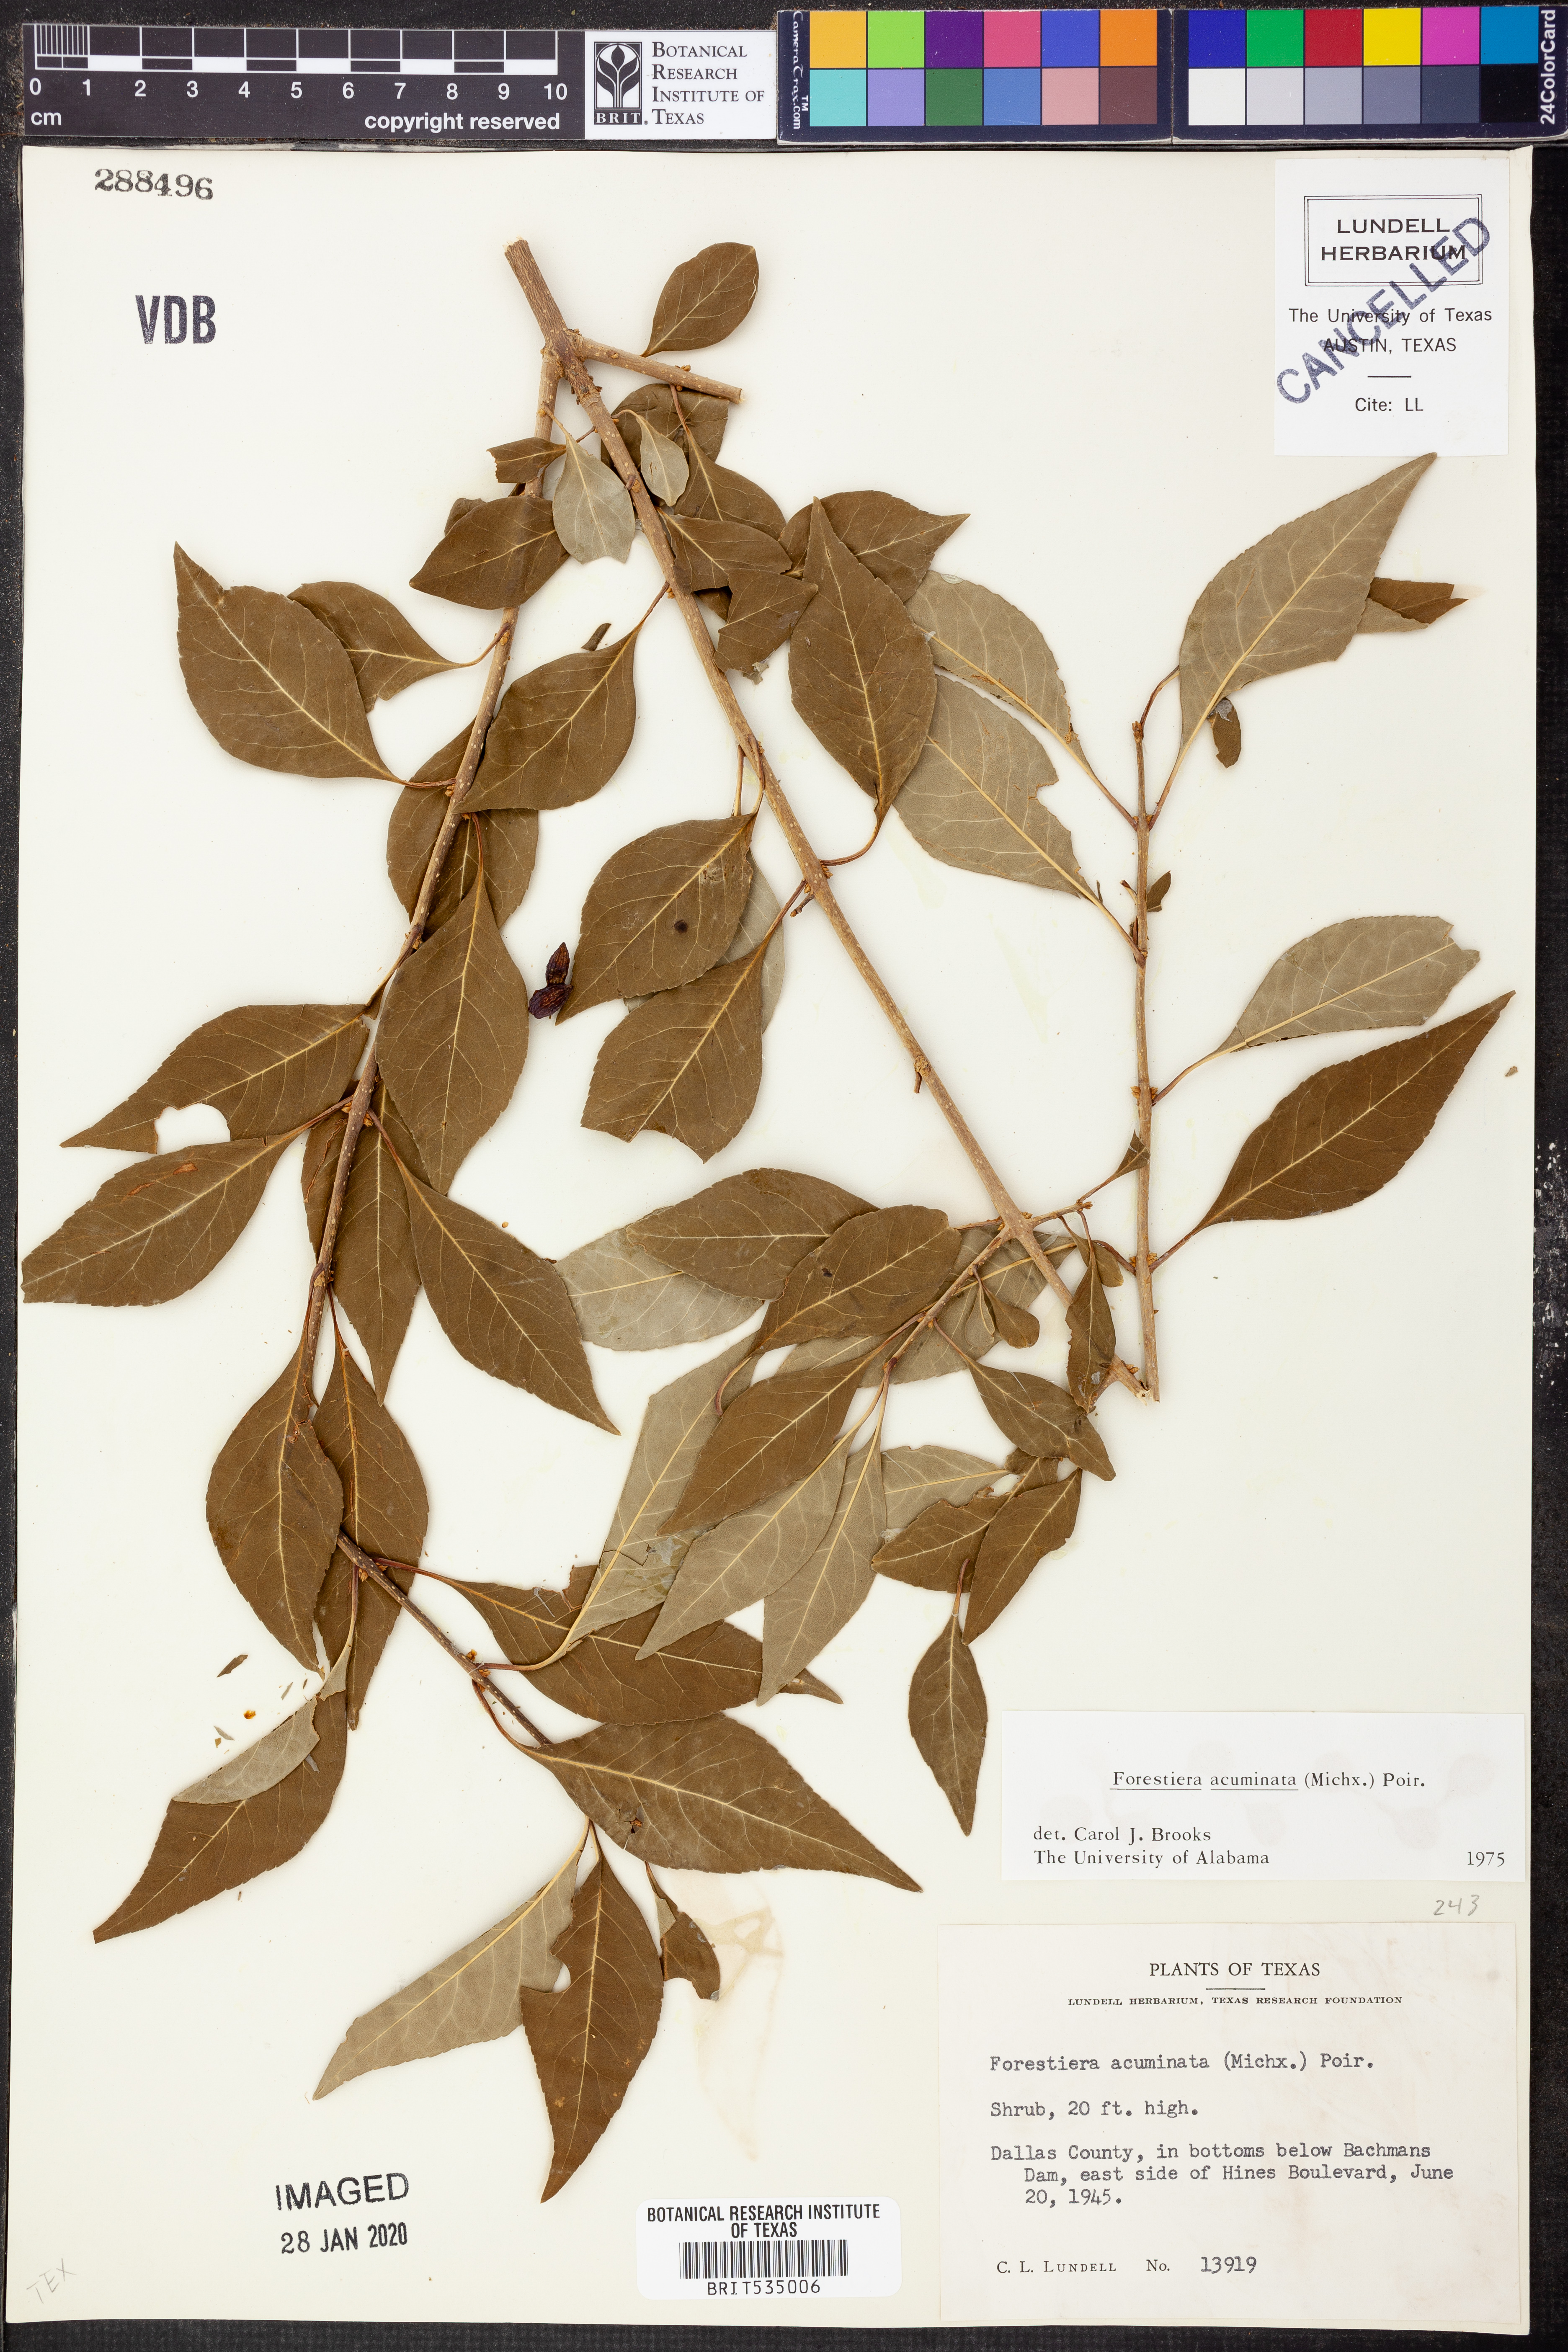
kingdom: Plantae
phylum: Tracheophyta
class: Magnoliopsida
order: Lamiales
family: Oleaceae
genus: Forestiera
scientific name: Forestiera acuminata
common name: Swamp-privet
